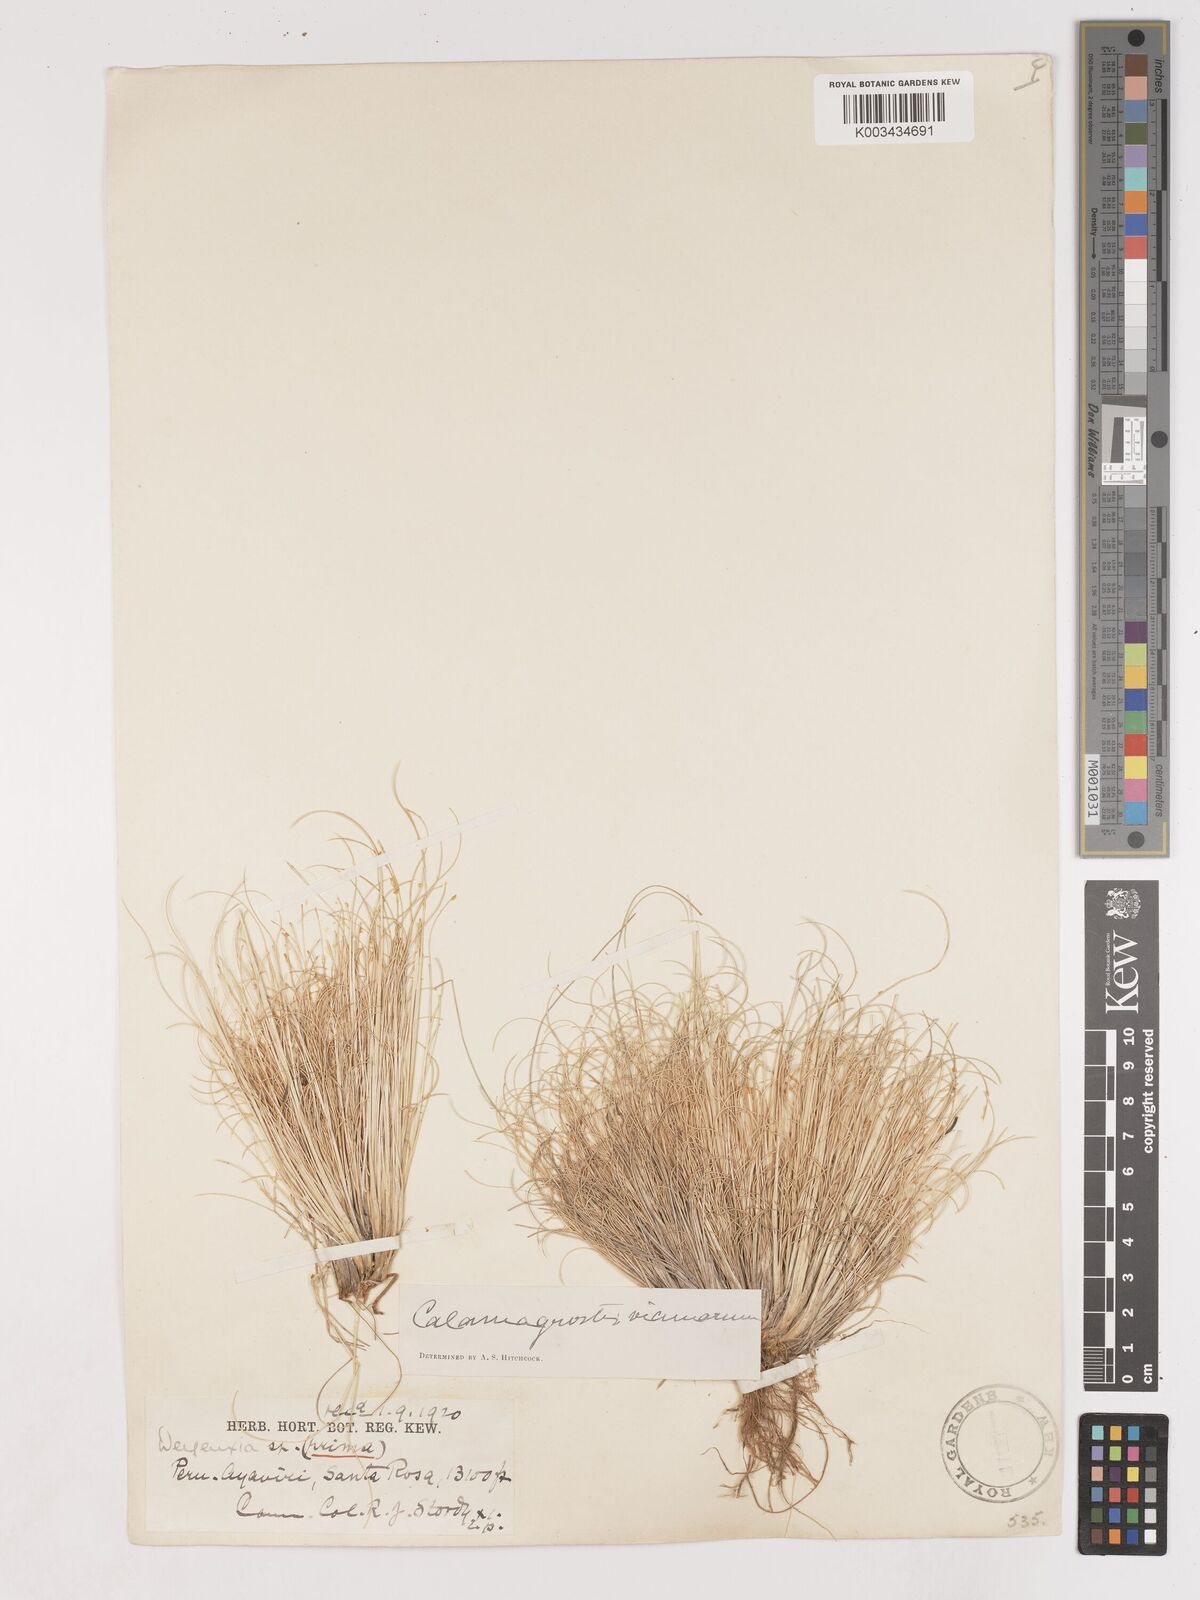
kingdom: Plantae
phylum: Tracheophyta
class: Liliopsida
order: Poales
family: Poaceae
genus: Cinnagrostis
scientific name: Cinnagrostis vicunarum
